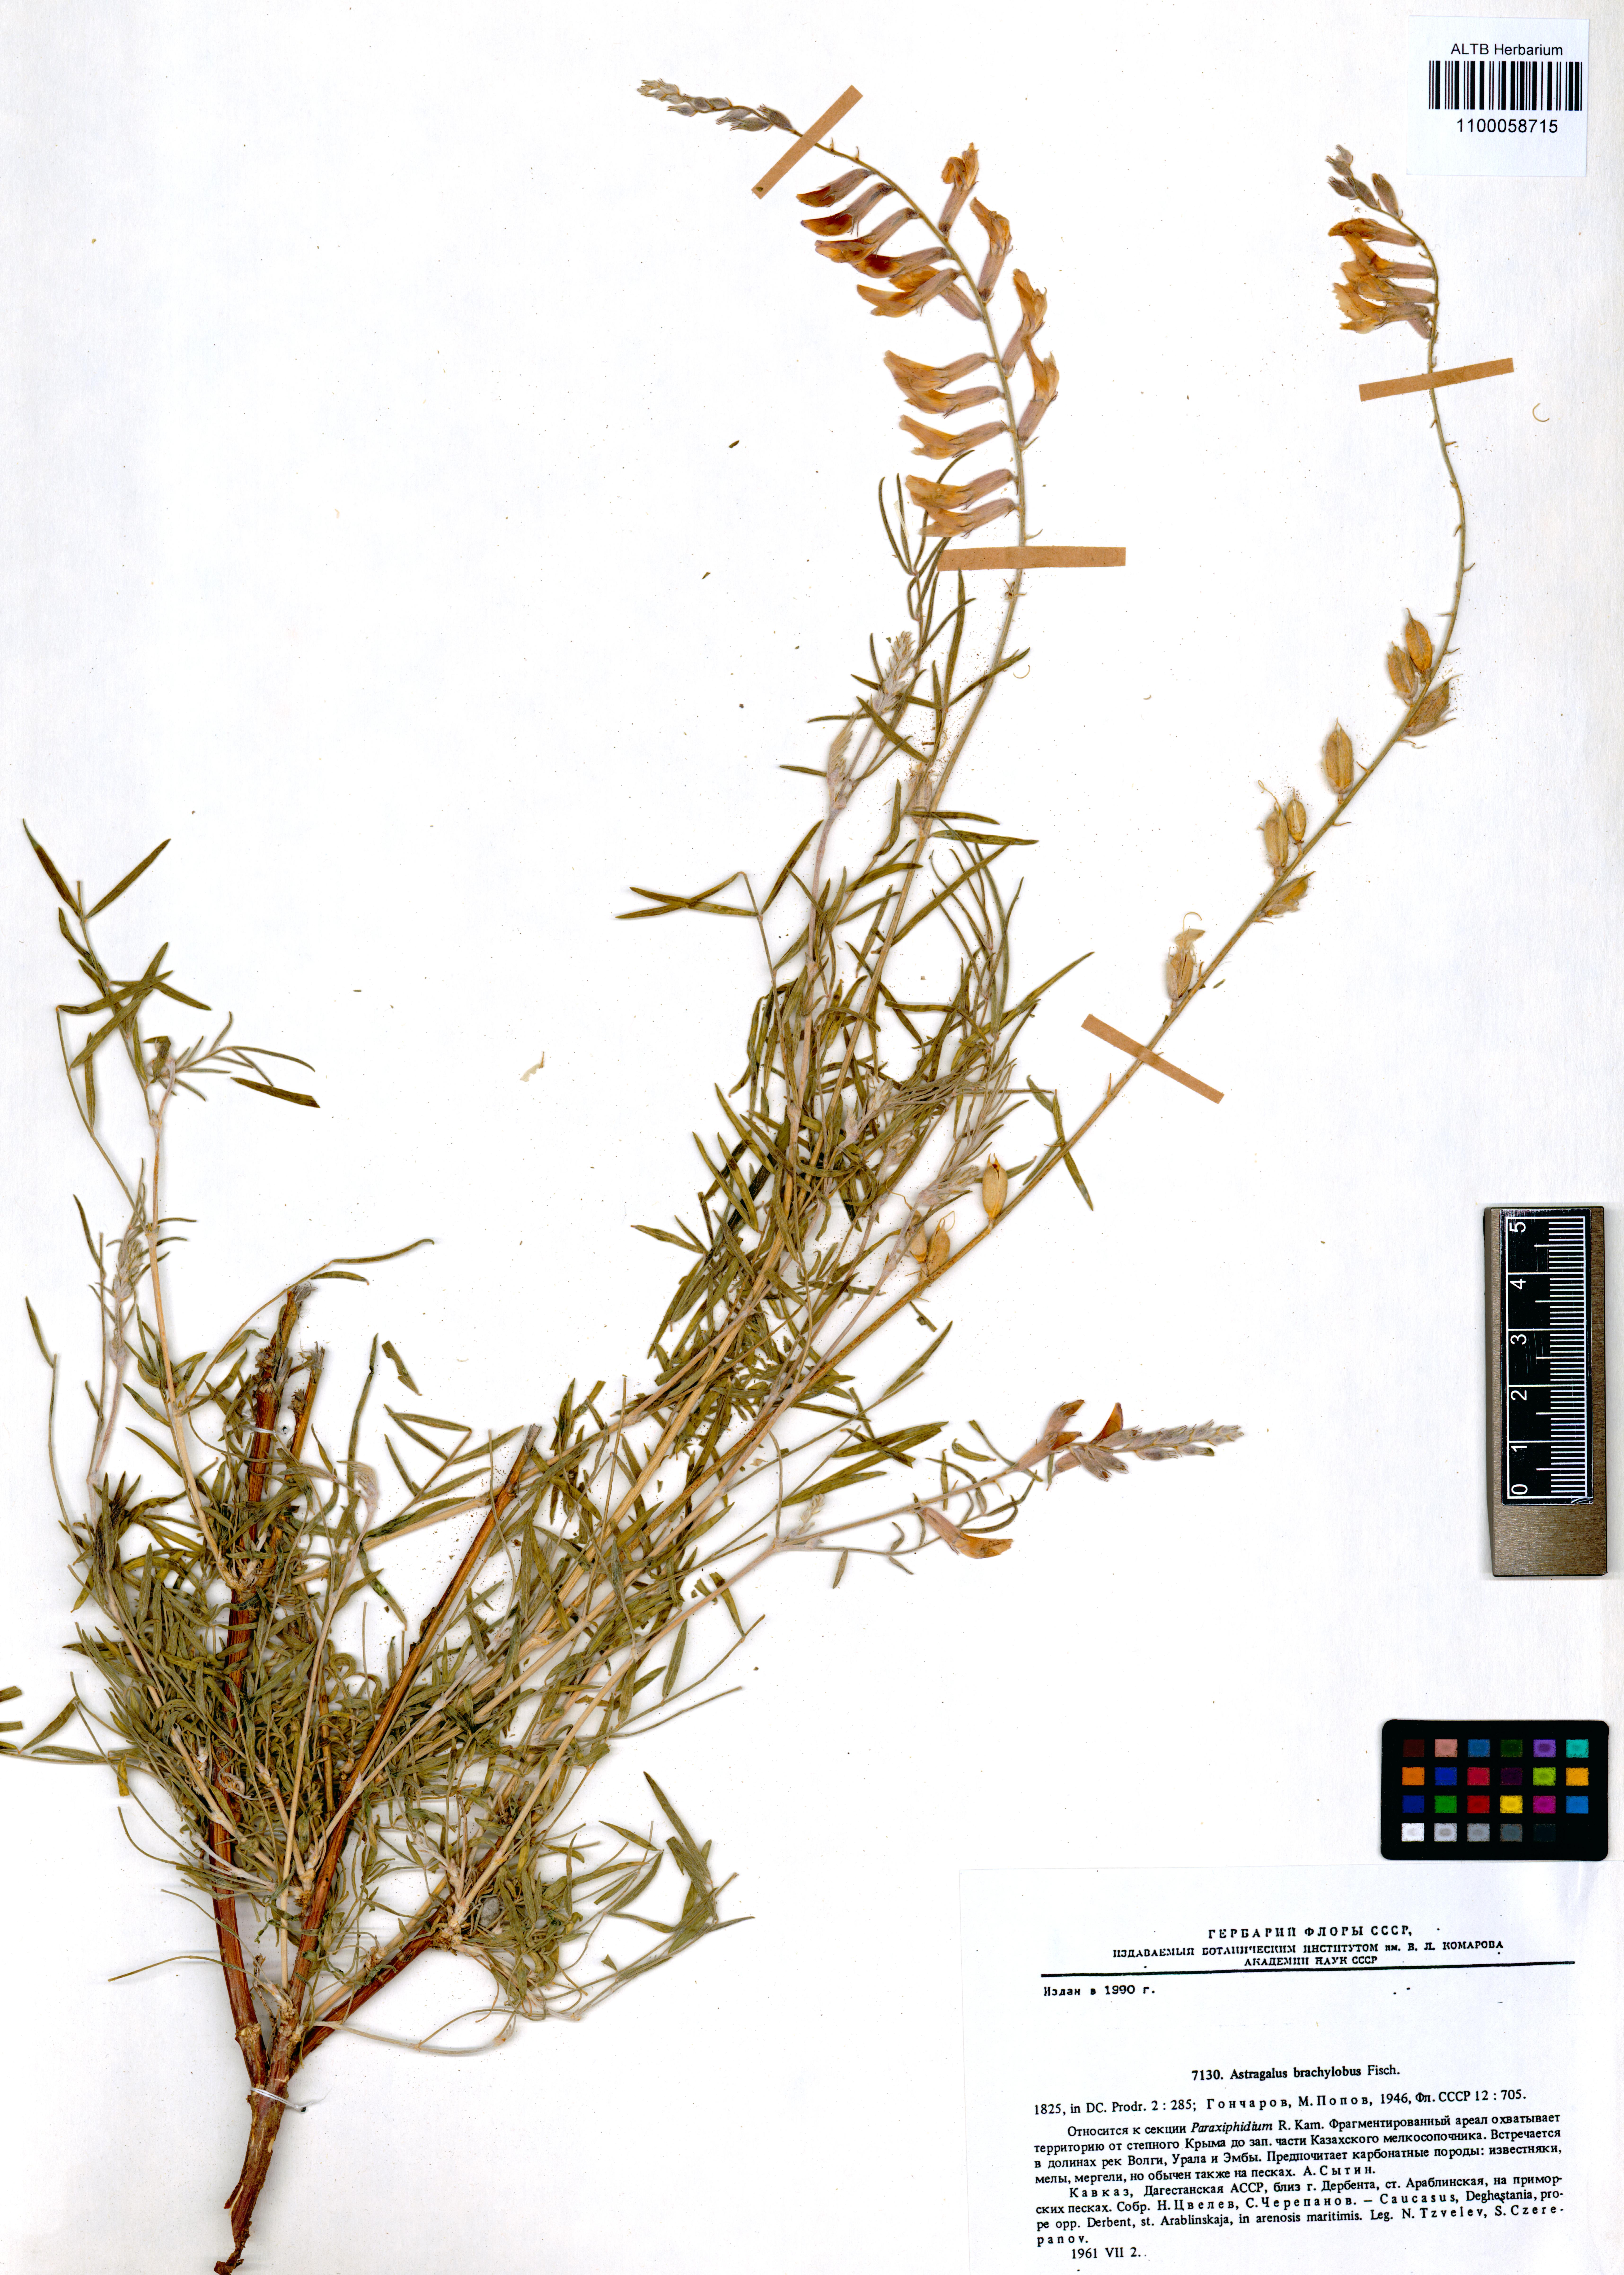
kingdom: Plantae
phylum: Tracheophyta
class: Magnoliopsida
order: Fabales
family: Fabaceae
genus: Astragalus
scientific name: Astragalus brachylobus
